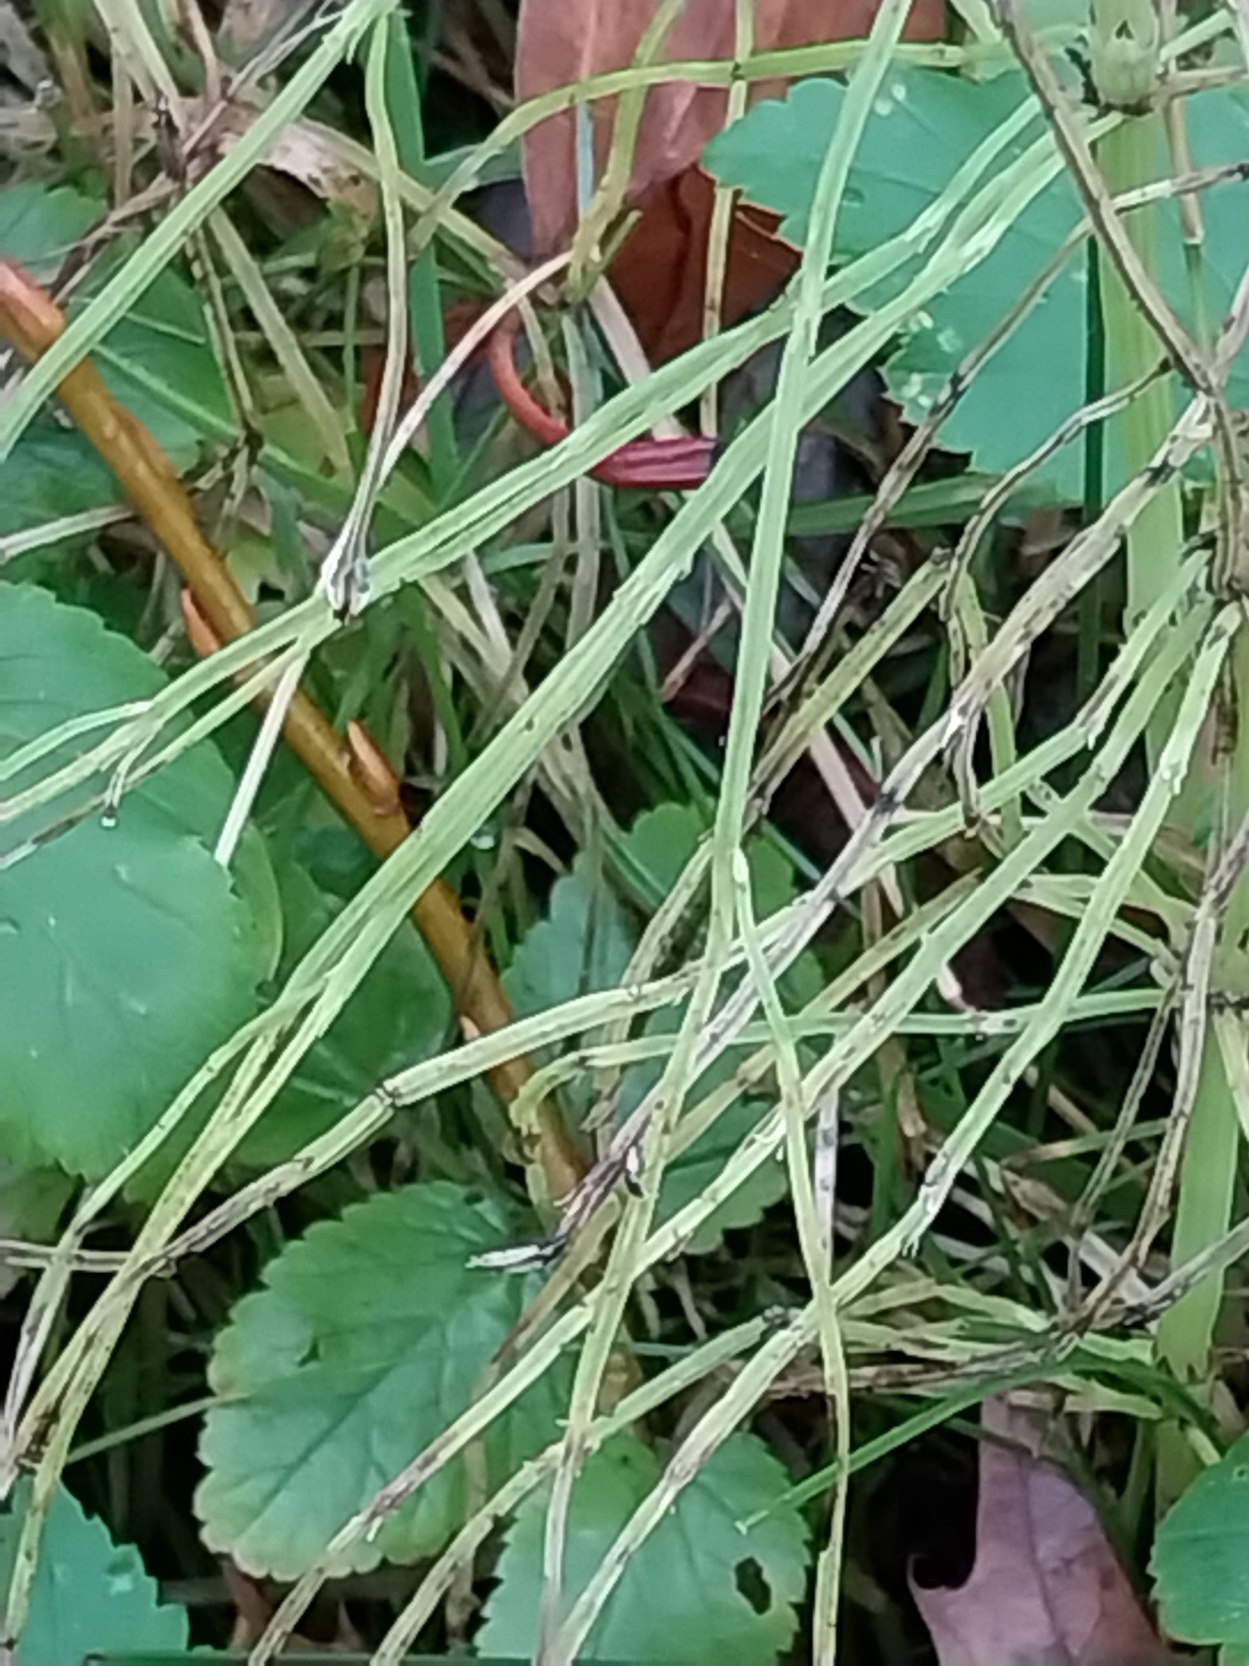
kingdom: Plantae
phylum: Tracheophyta
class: Polypodiopsida
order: Equisetales
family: Equisetaceae
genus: Equisetum
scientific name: Equisetum arvense
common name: Ager-padderok
